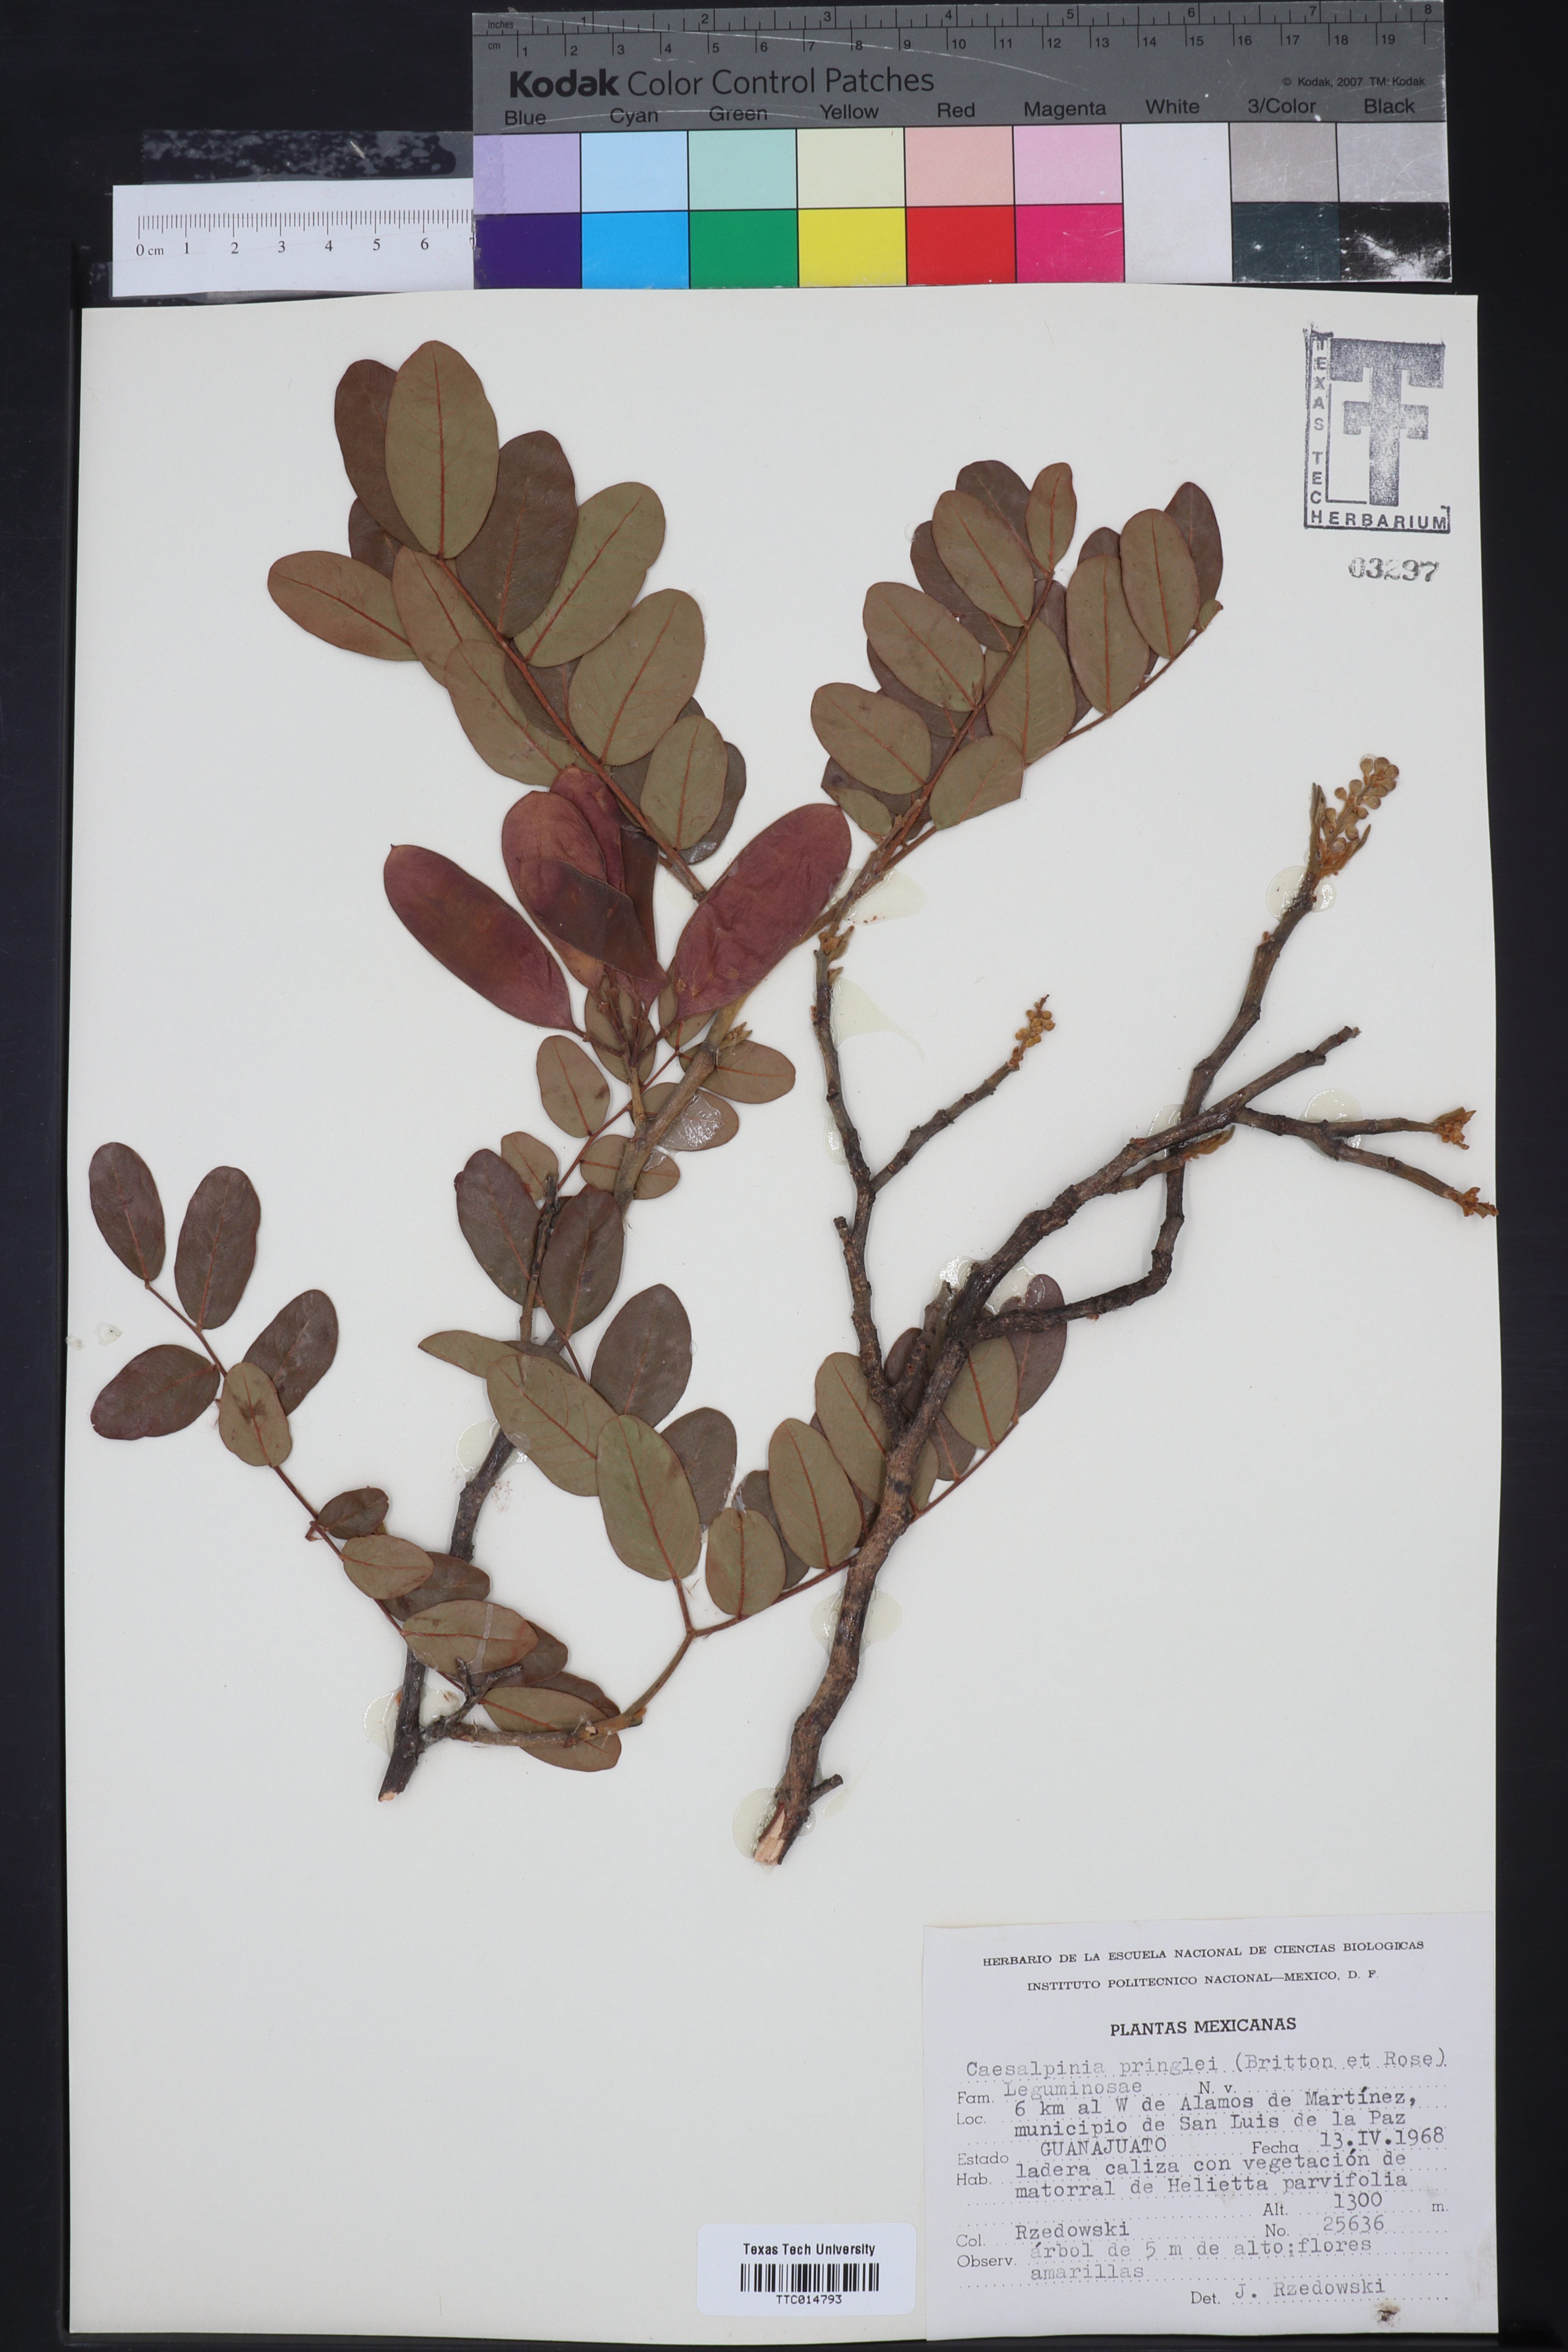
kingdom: Plantae
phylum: Tracheophyta
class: Magnoliopsida
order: Fabales
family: Fabaceae
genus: Coulteria
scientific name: Coulteria pringlei
